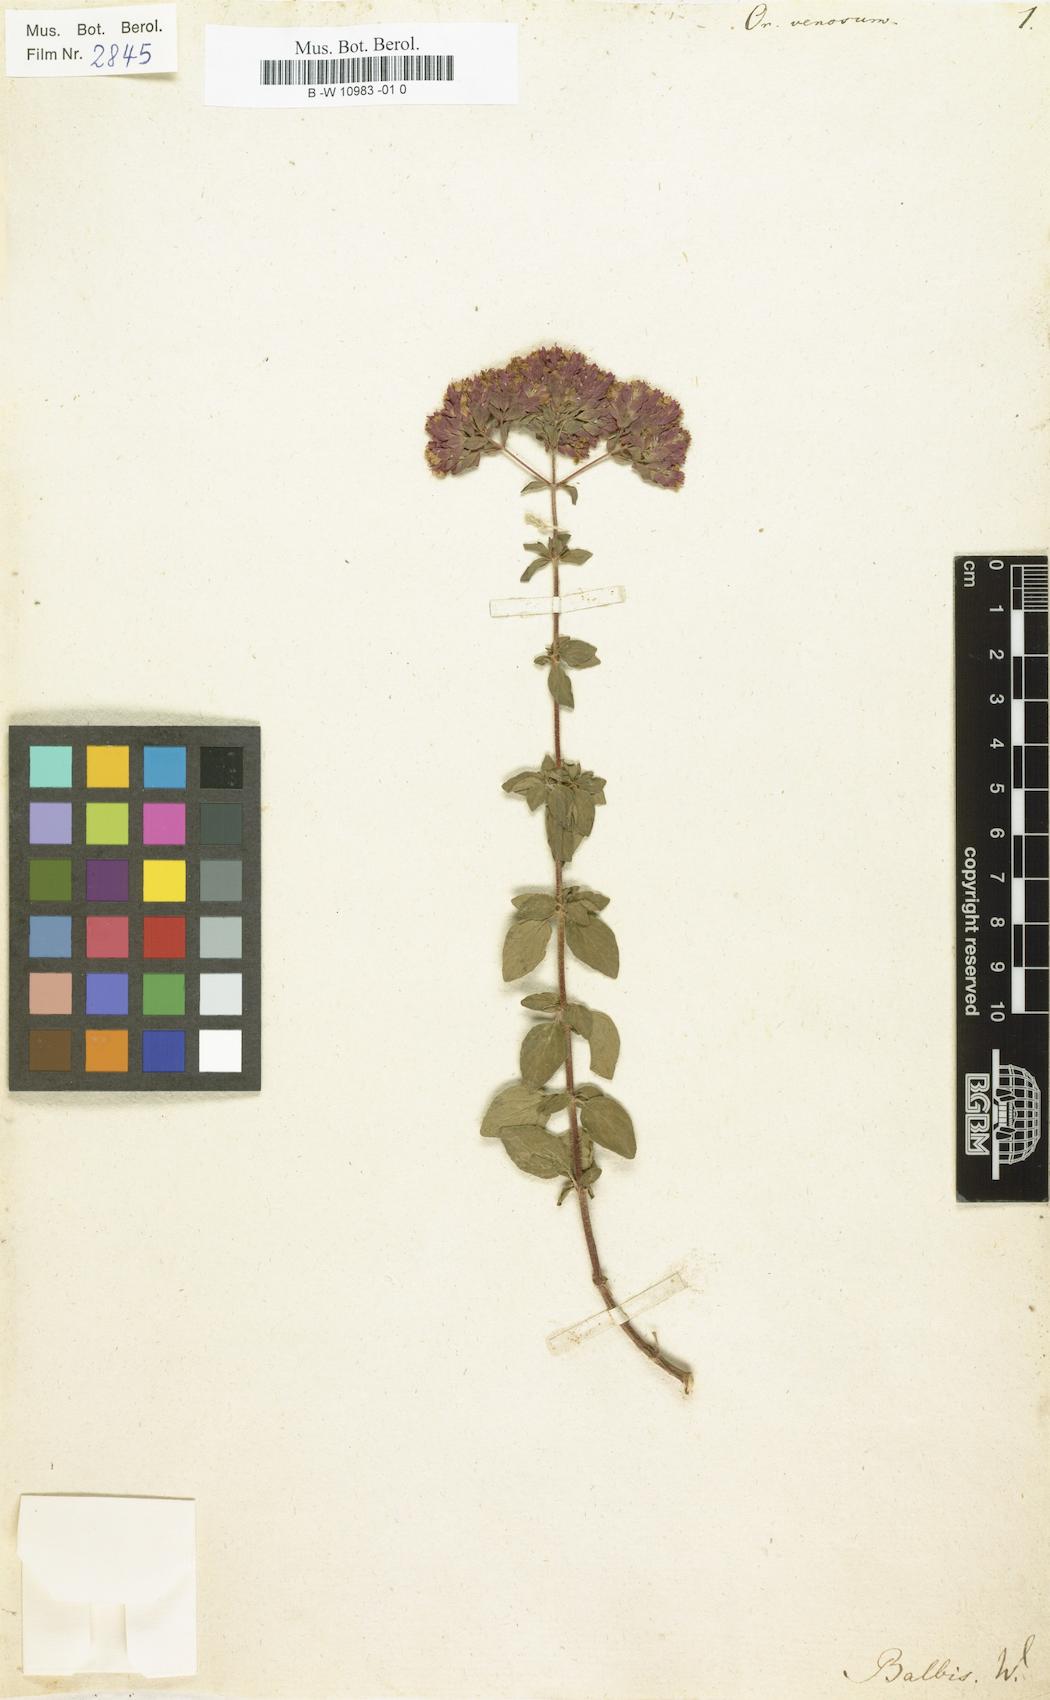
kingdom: Plantae
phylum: Tracheophyta
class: Magnoliopsida
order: Lamiales
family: Lamiaceae
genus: Origanum
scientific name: Origanum vulgare
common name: Wild marjoram
